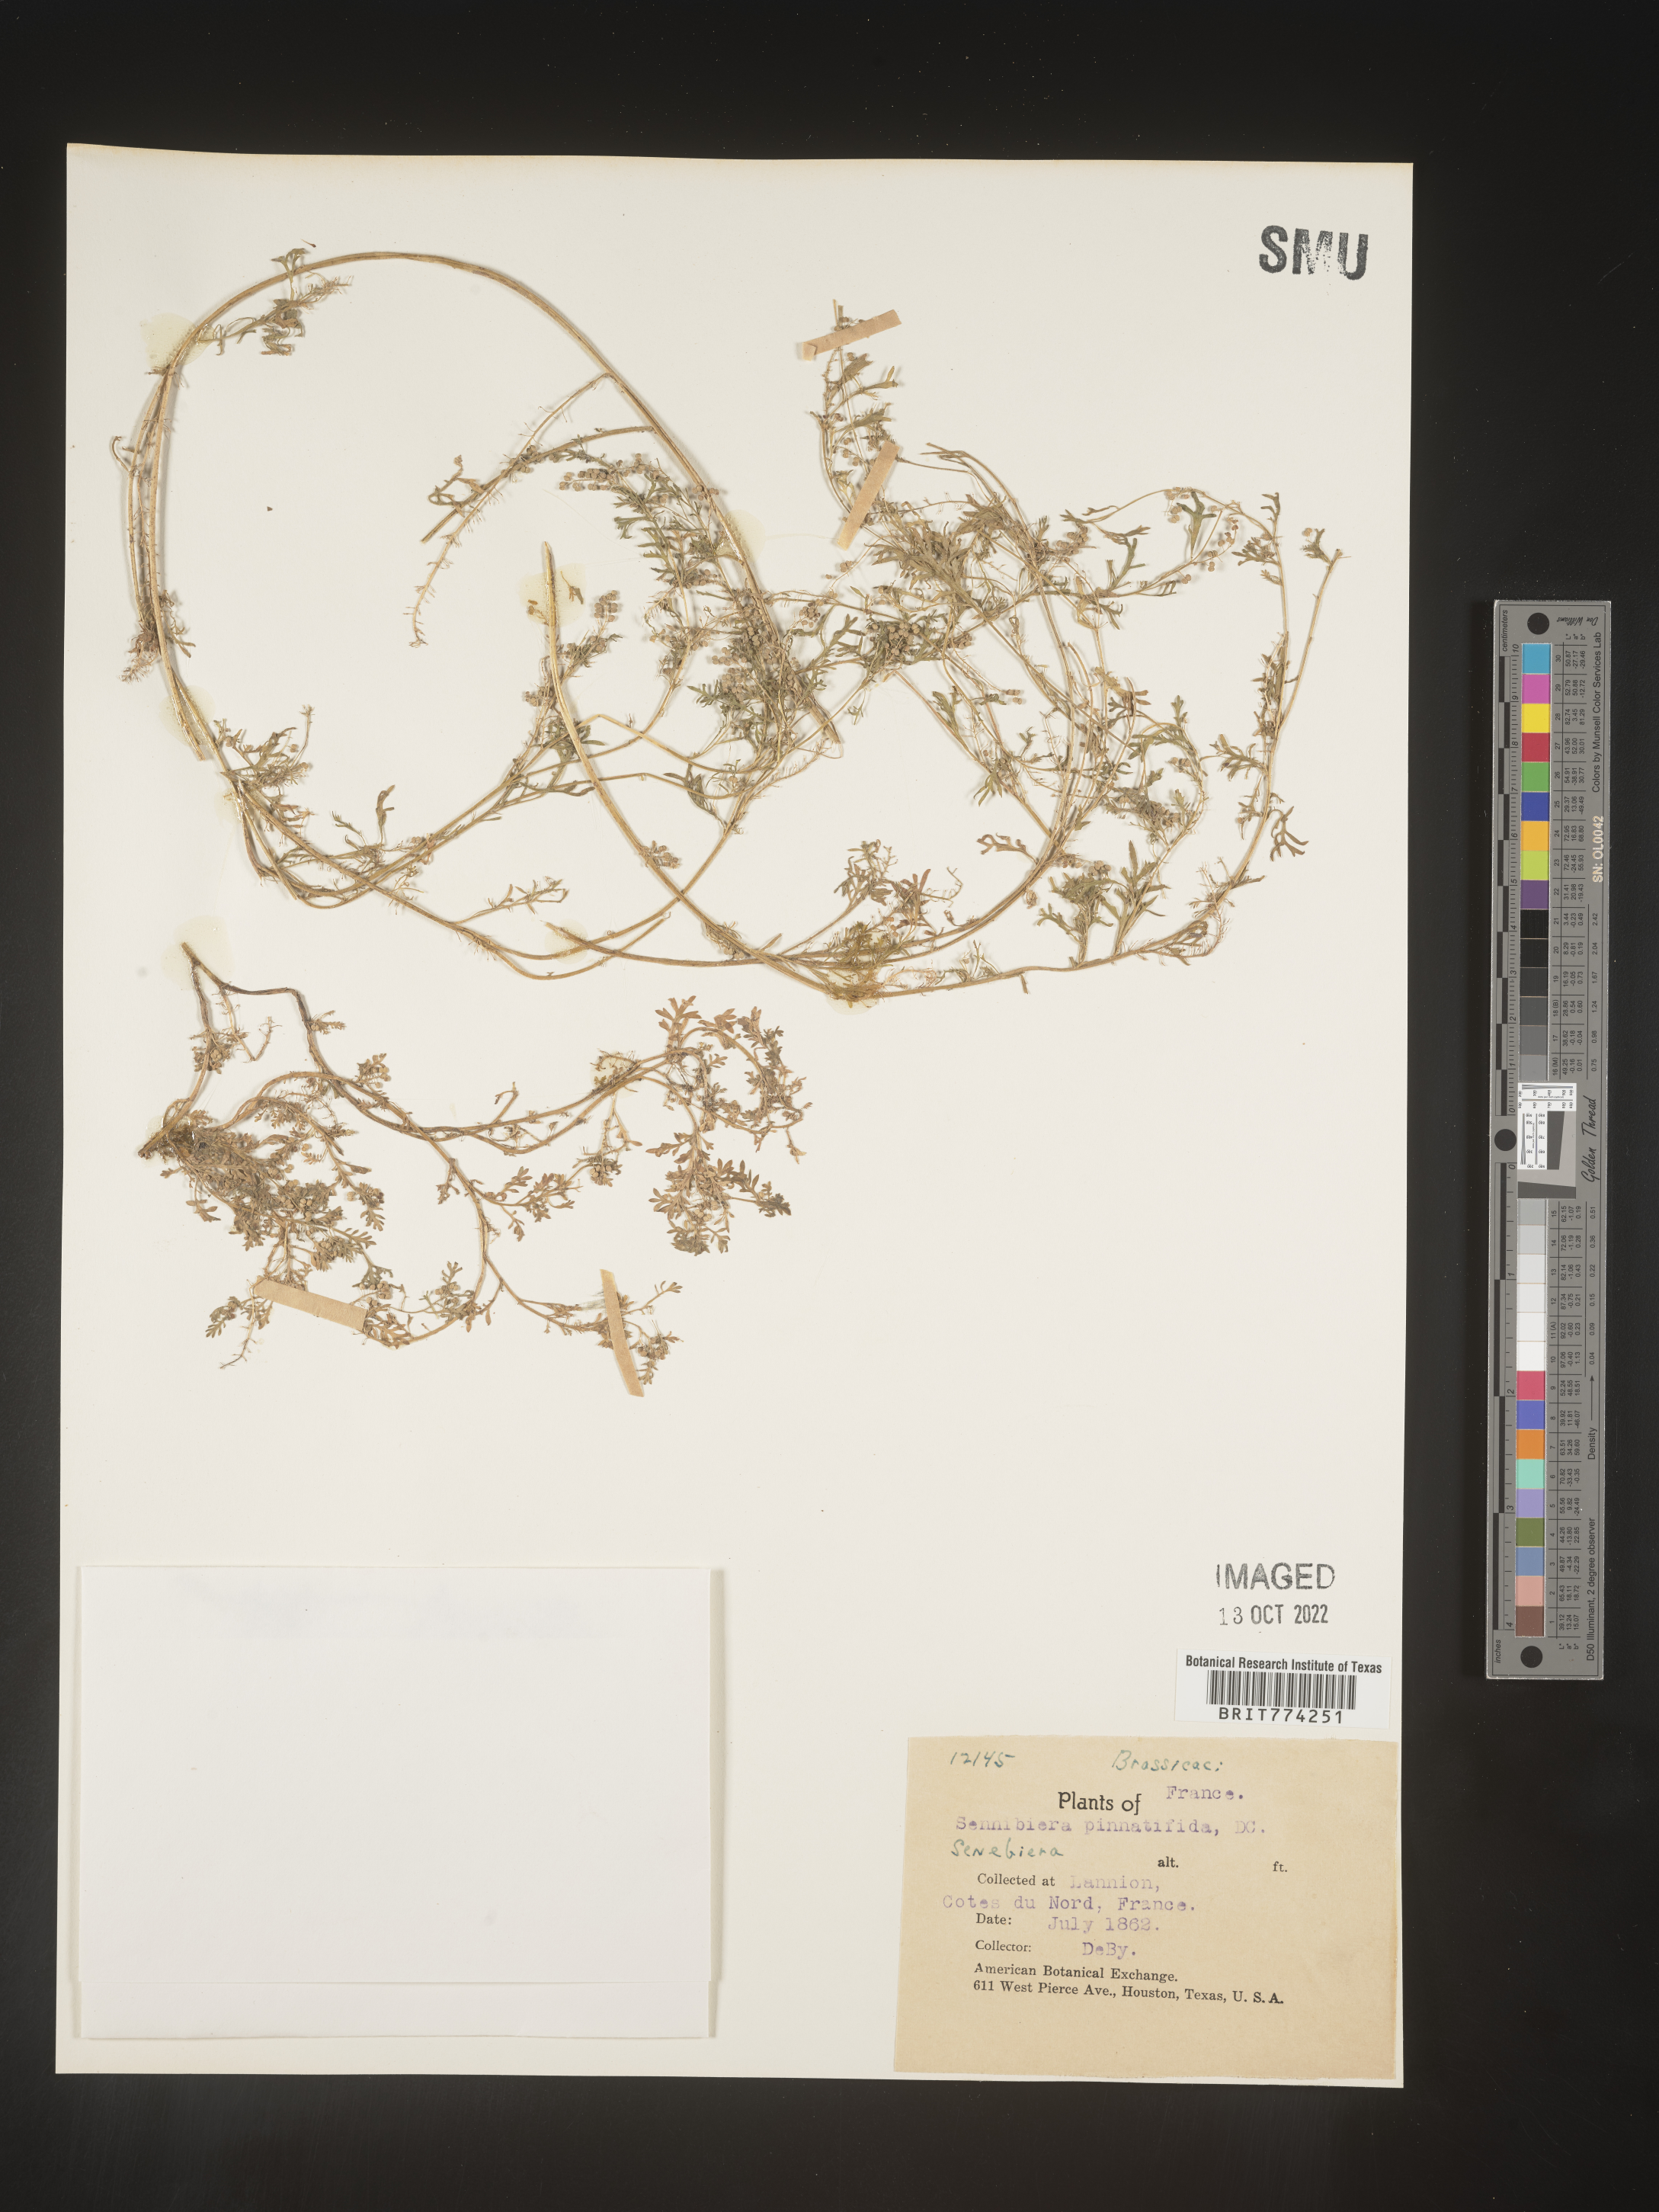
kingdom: Plantae
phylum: Tracheophyta
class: Magnoliopsida
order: Brassicales
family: Brassicaceae
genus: Coronopus
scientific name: Coronopus
